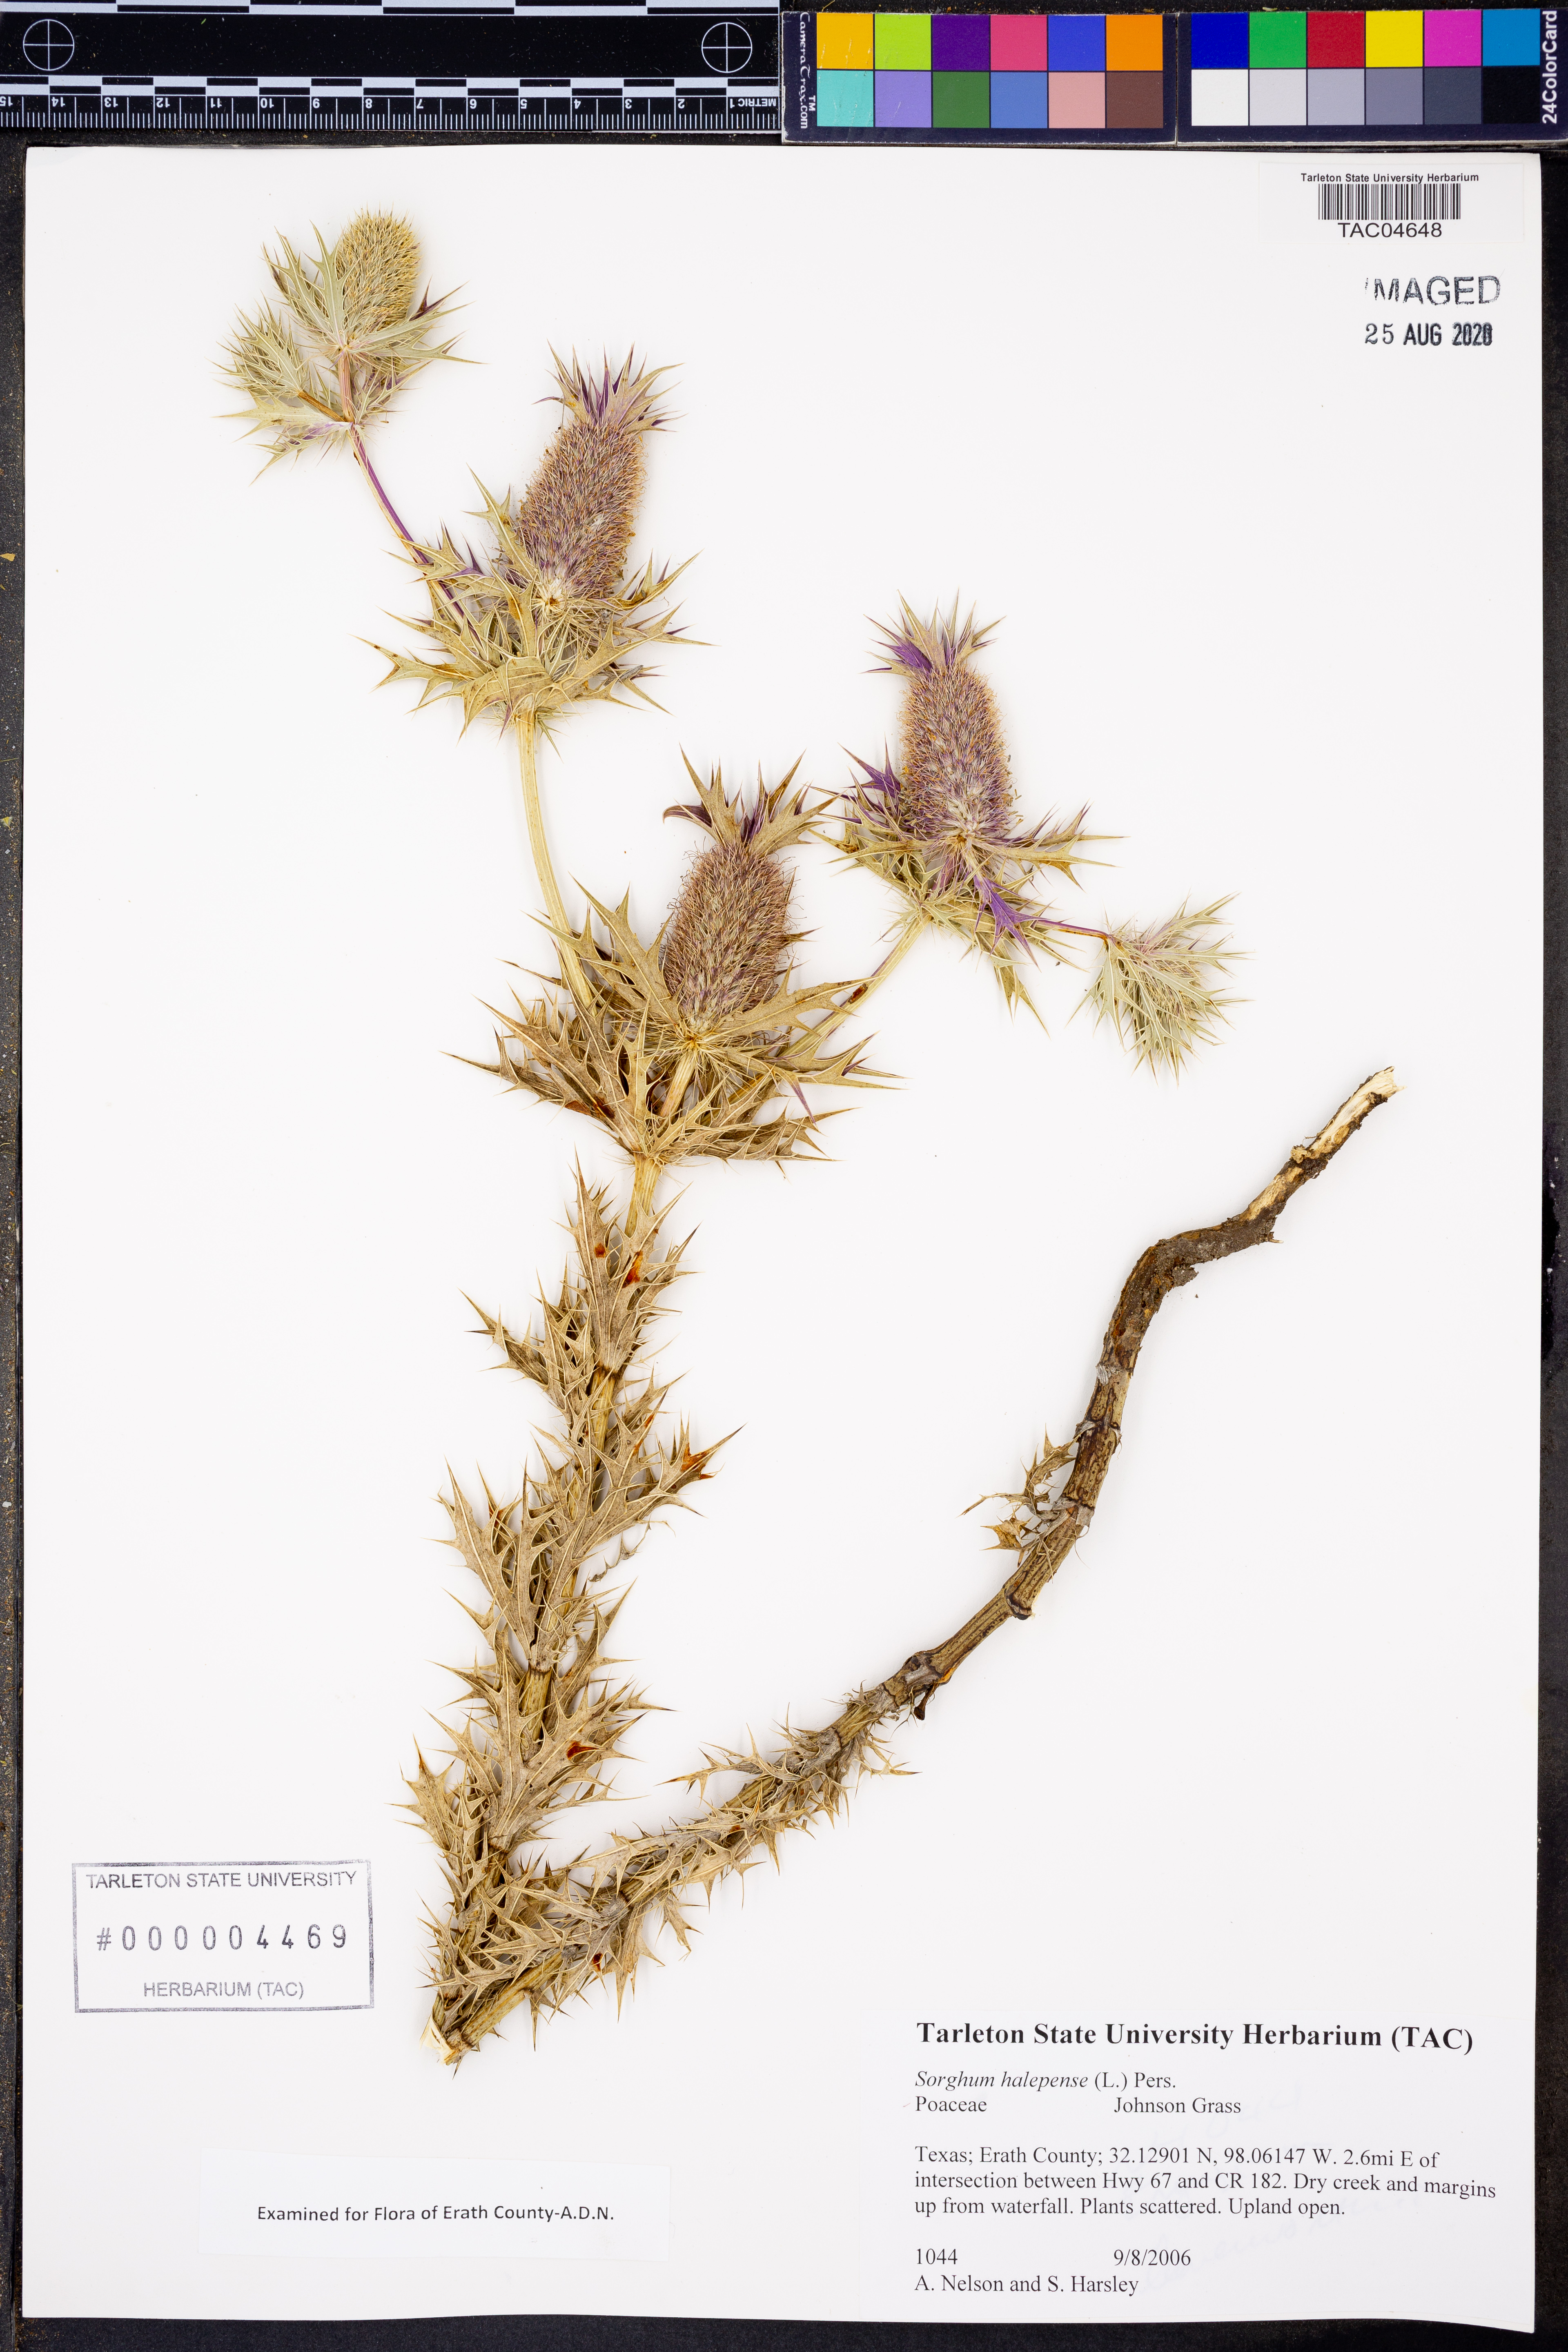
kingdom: Plantae
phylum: Tracheophyta
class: Liliopsida
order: Poales
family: Poaceae
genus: Sorghum
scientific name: Sorghum halepense
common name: Johnson-grass
